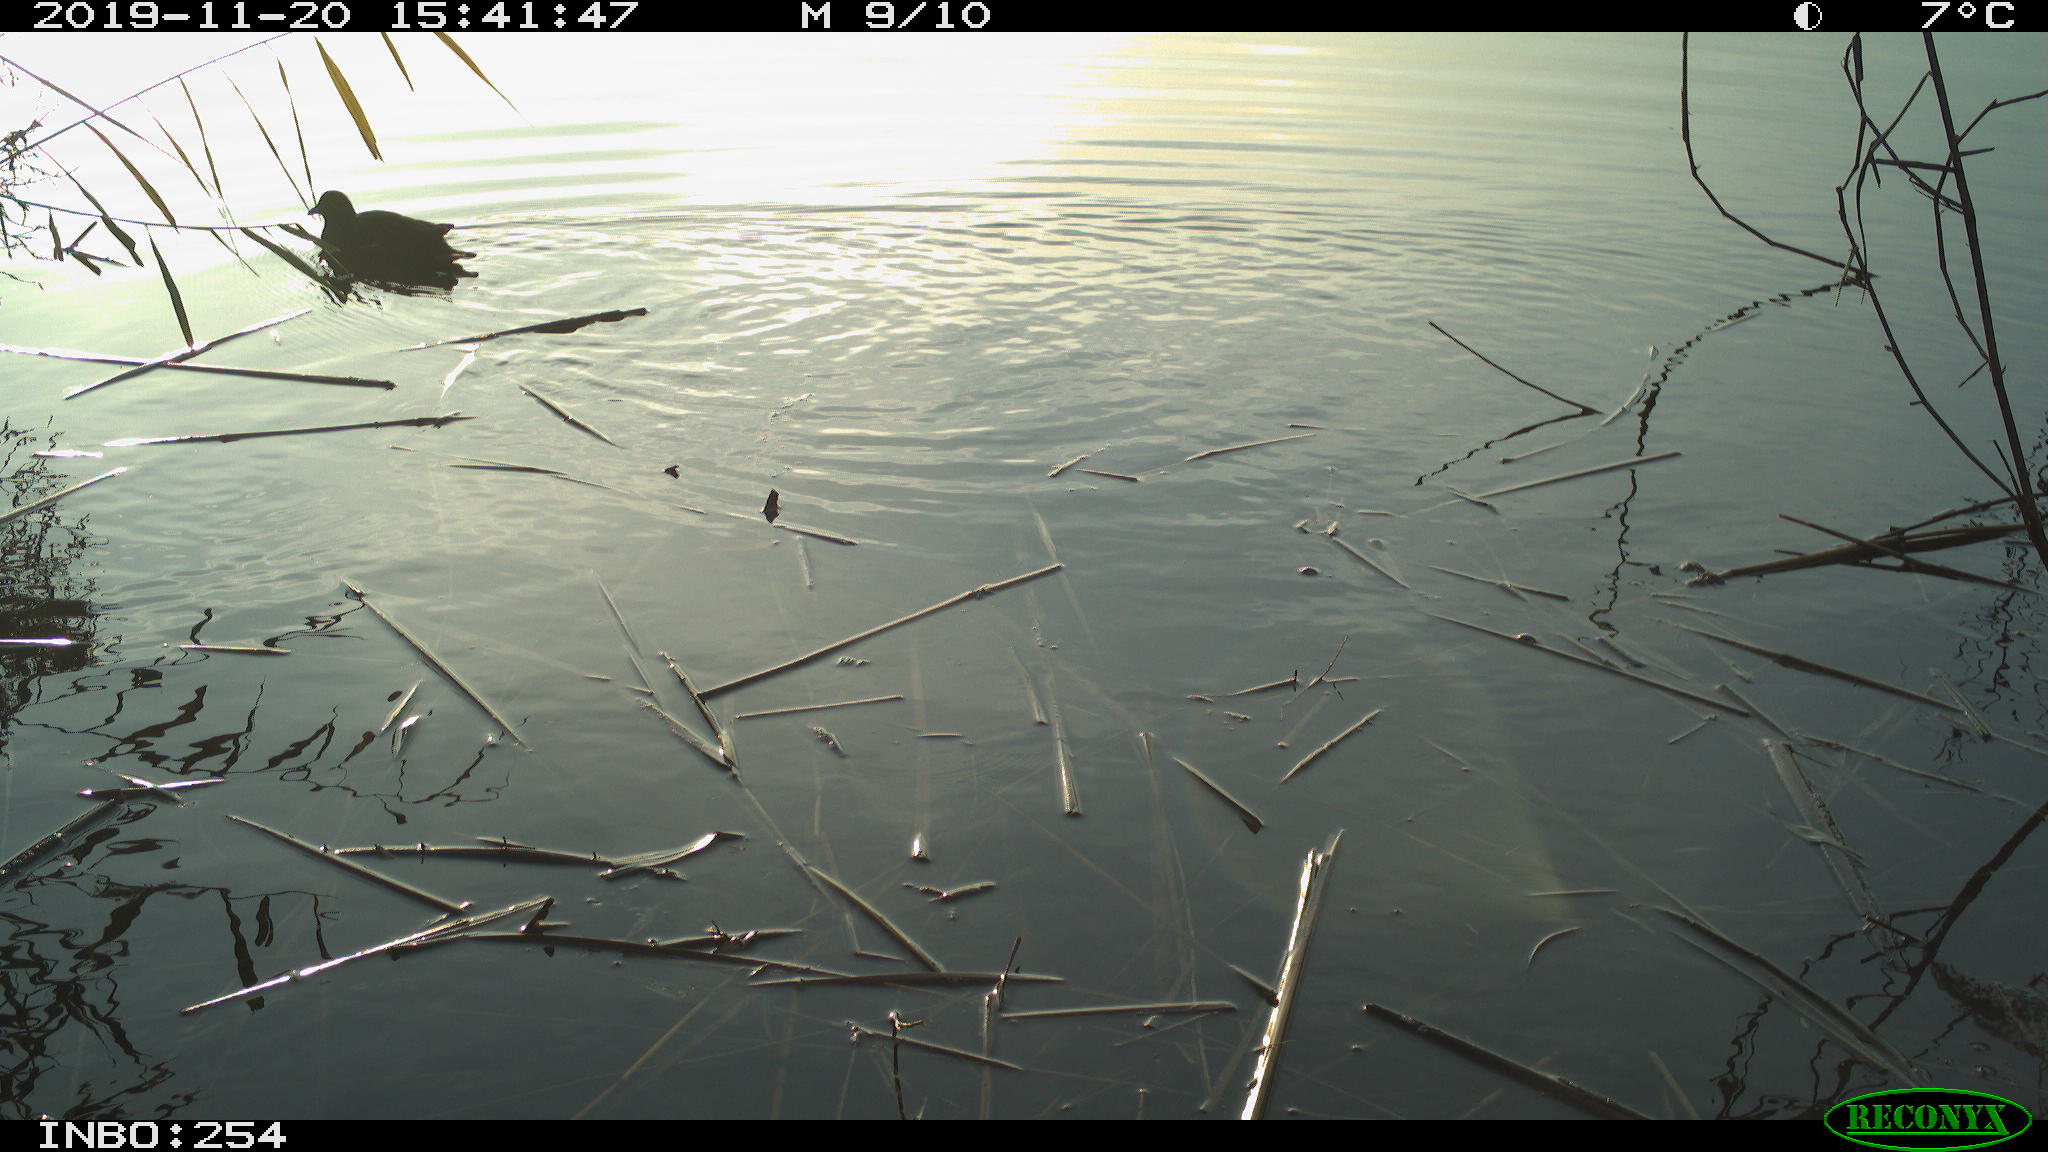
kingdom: Animalia
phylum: Chordata
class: Aves
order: Gruiformes
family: Rallidae
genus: Gallinula
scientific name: Gallinula chloropus
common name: Common moorhen
